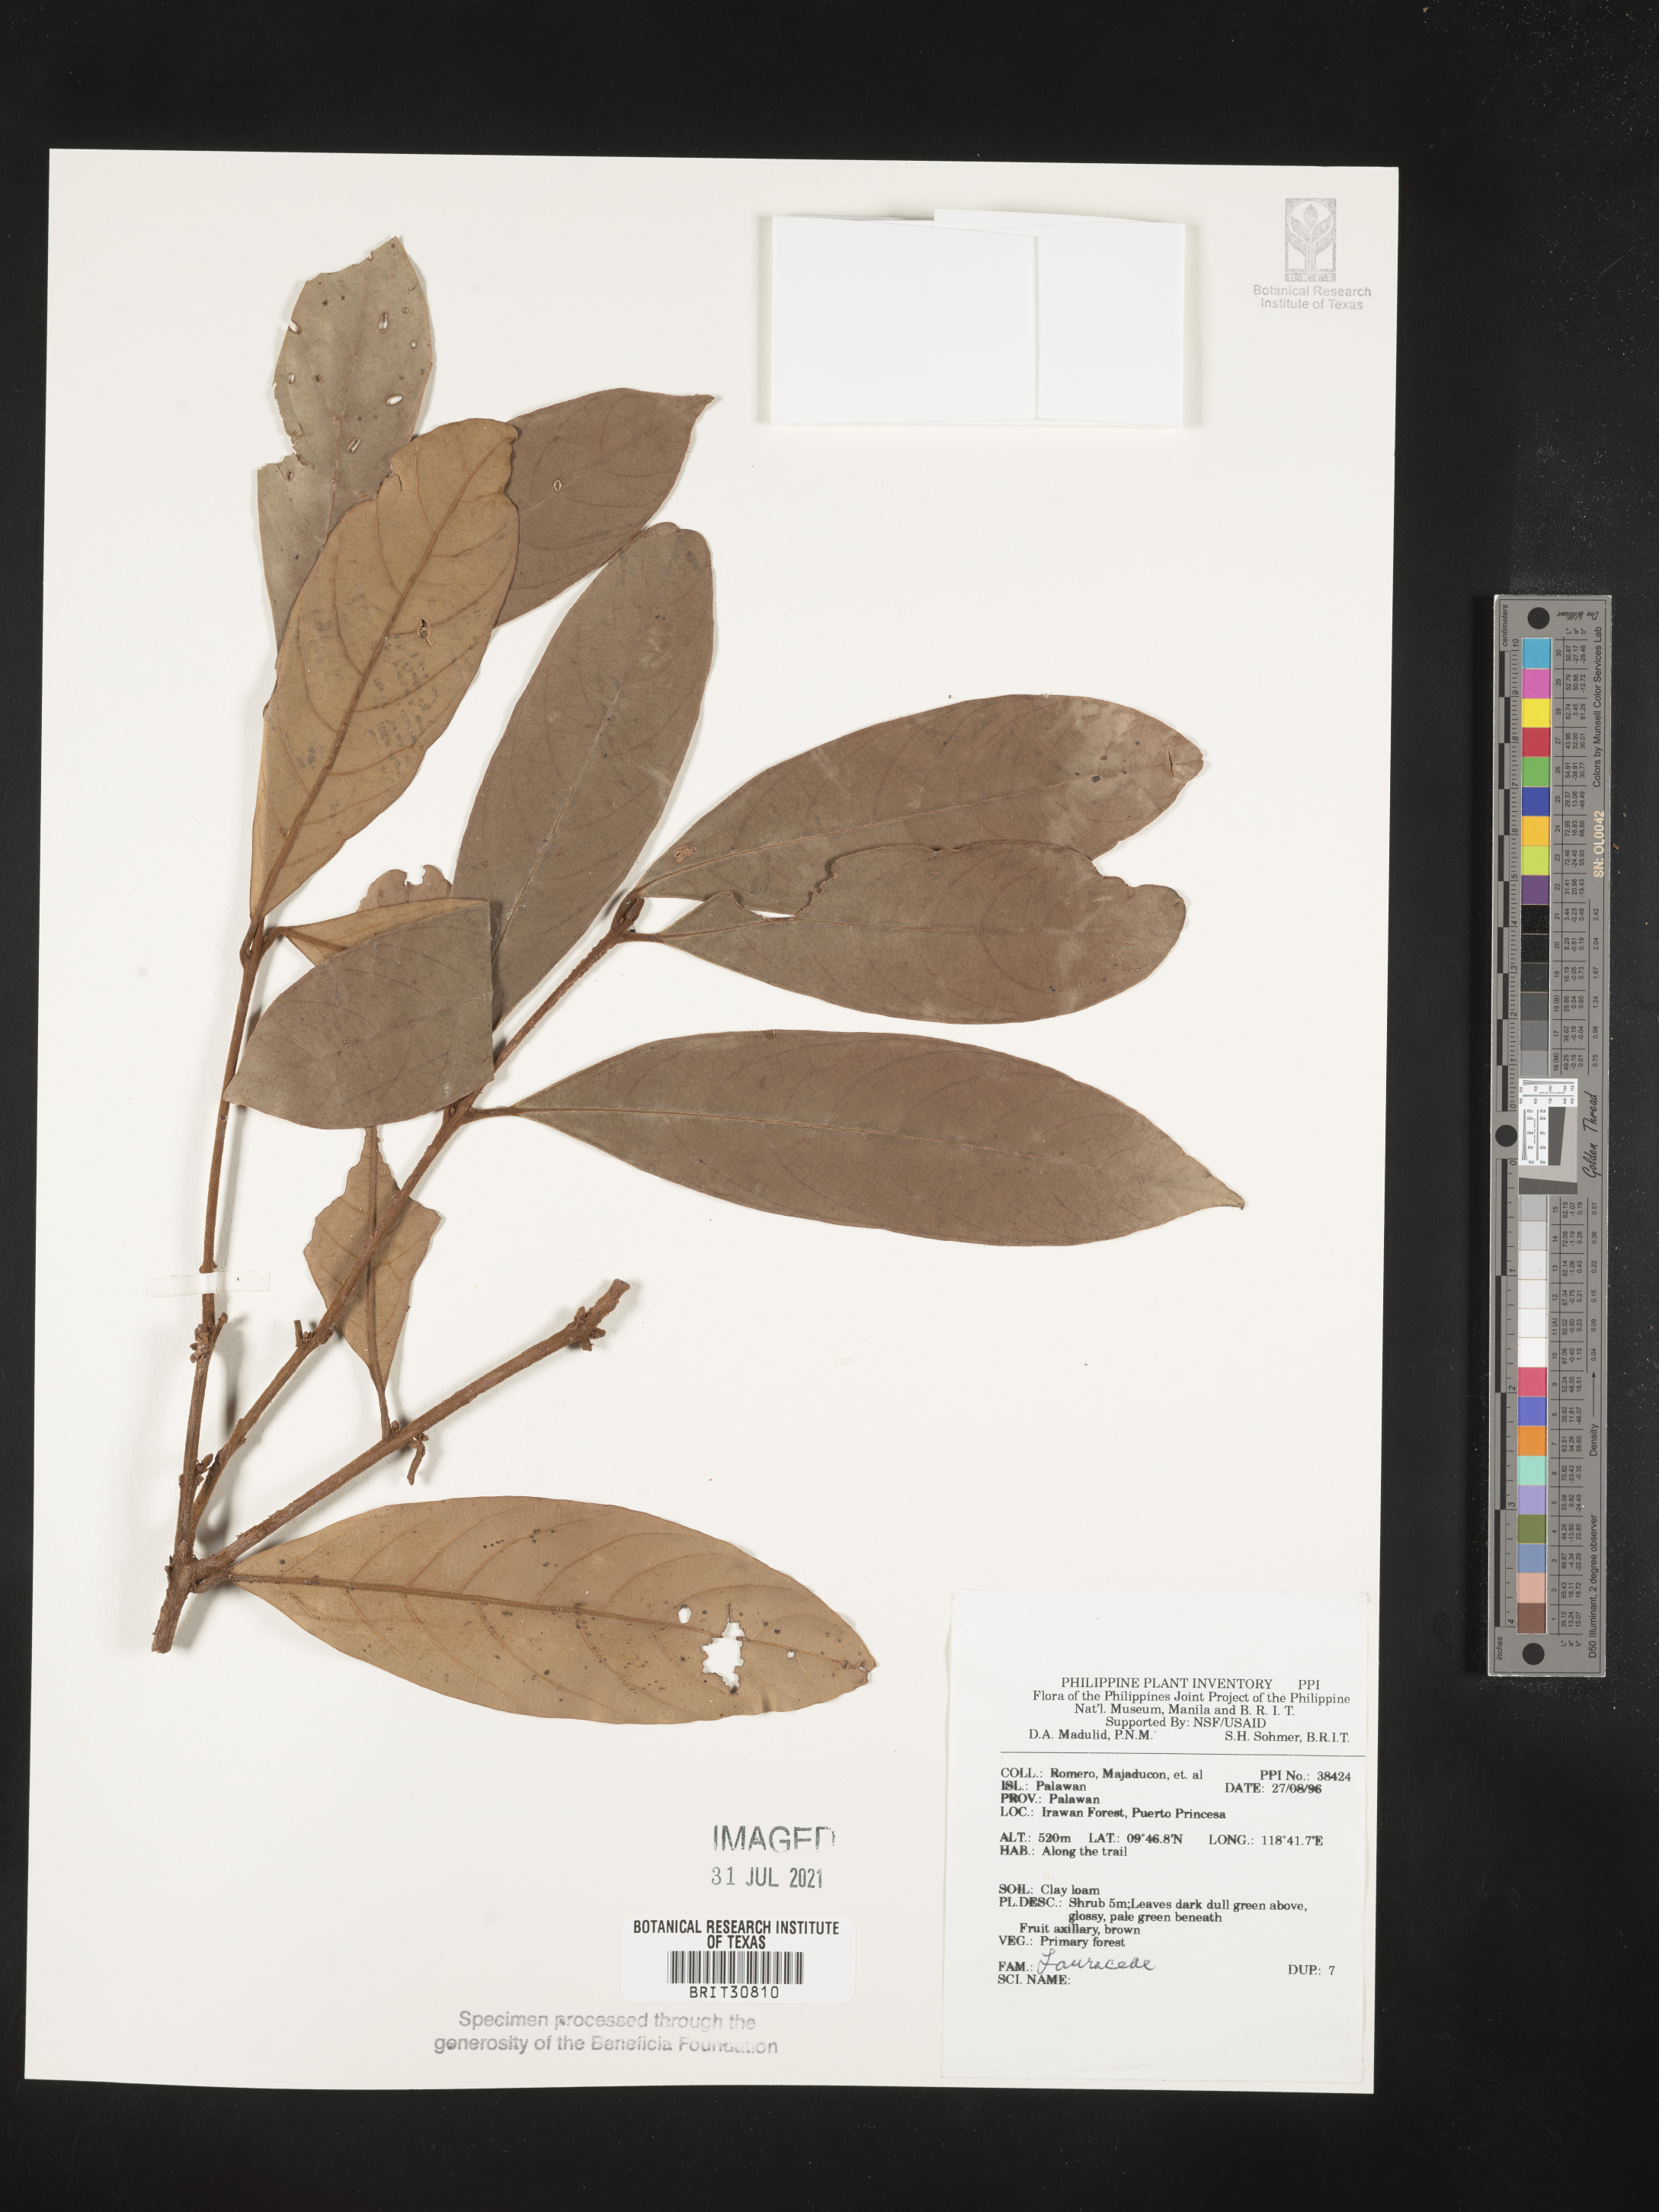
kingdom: Plantae
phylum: Tracheophyta
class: Magnoliopsida
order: Laurales
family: Lauraceae
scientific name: Lauraceae
